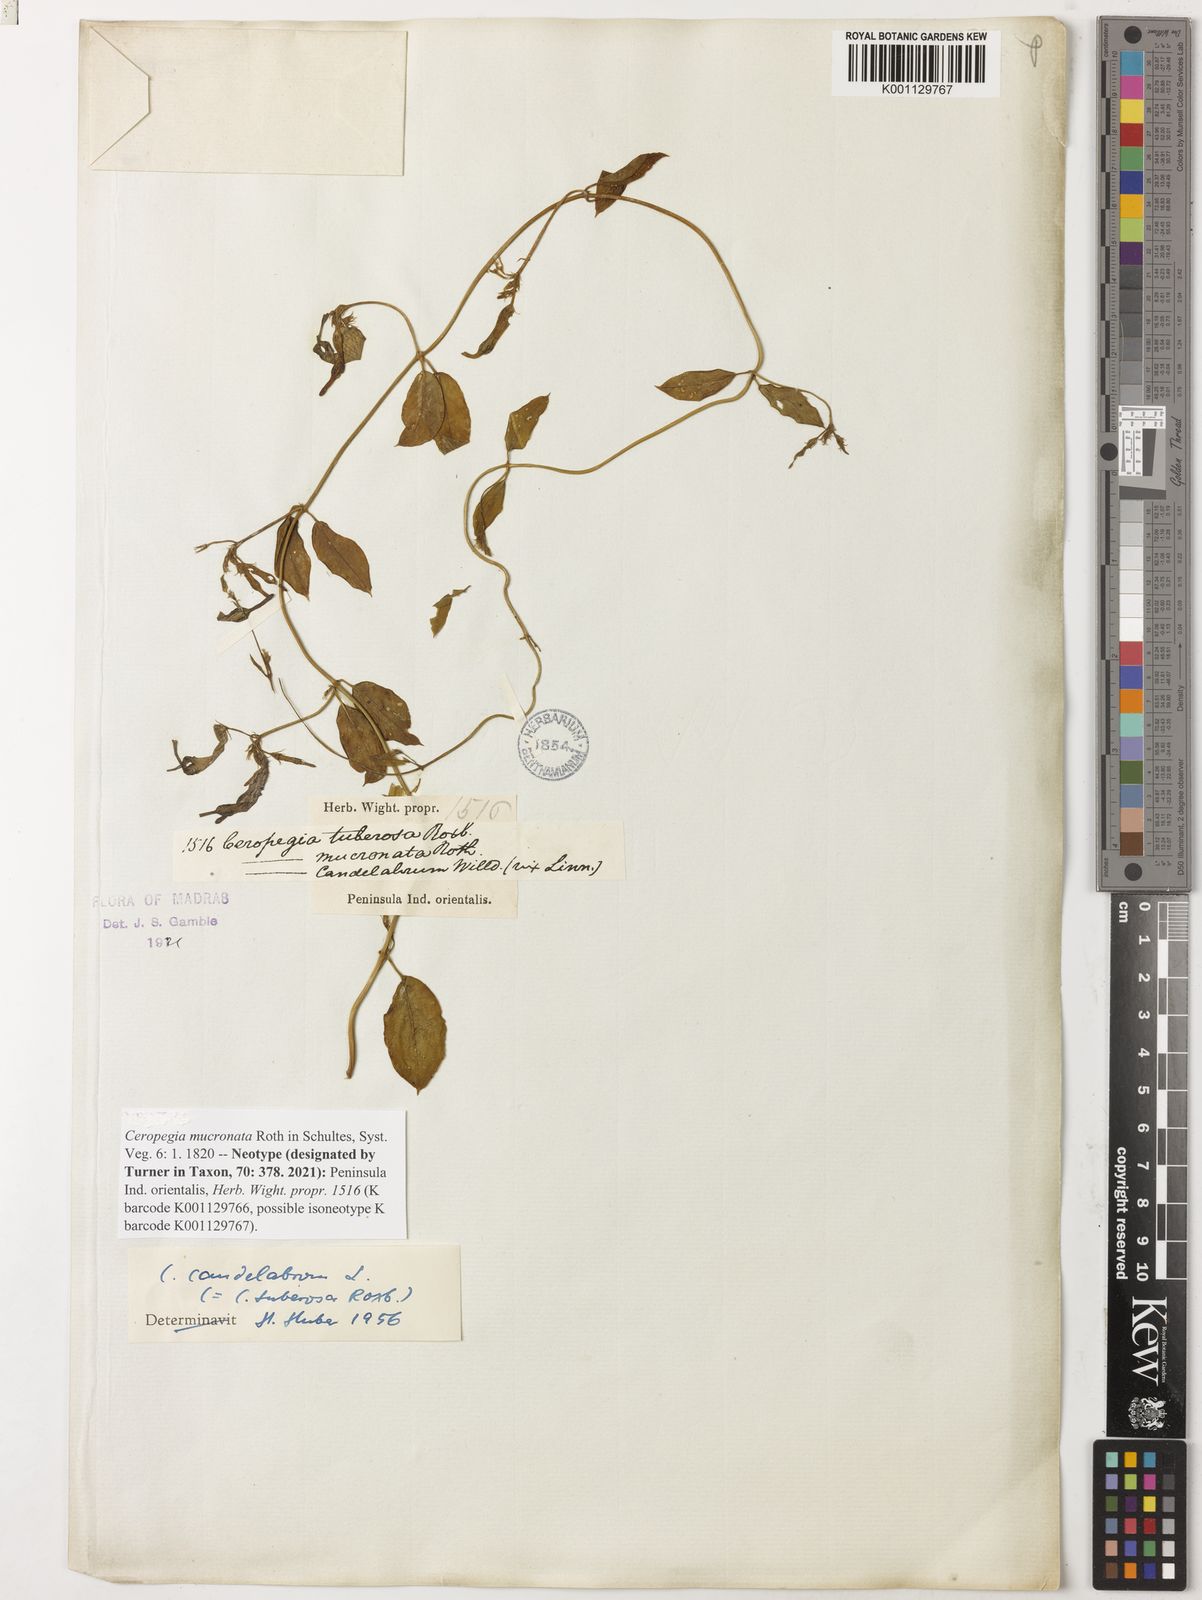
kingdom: Plantae
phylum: Tracheophyta
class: Magnoliopsida
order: Gentianales
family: Apocynaceae
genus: Ceropegia
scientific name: Ceropegia candelabrum
